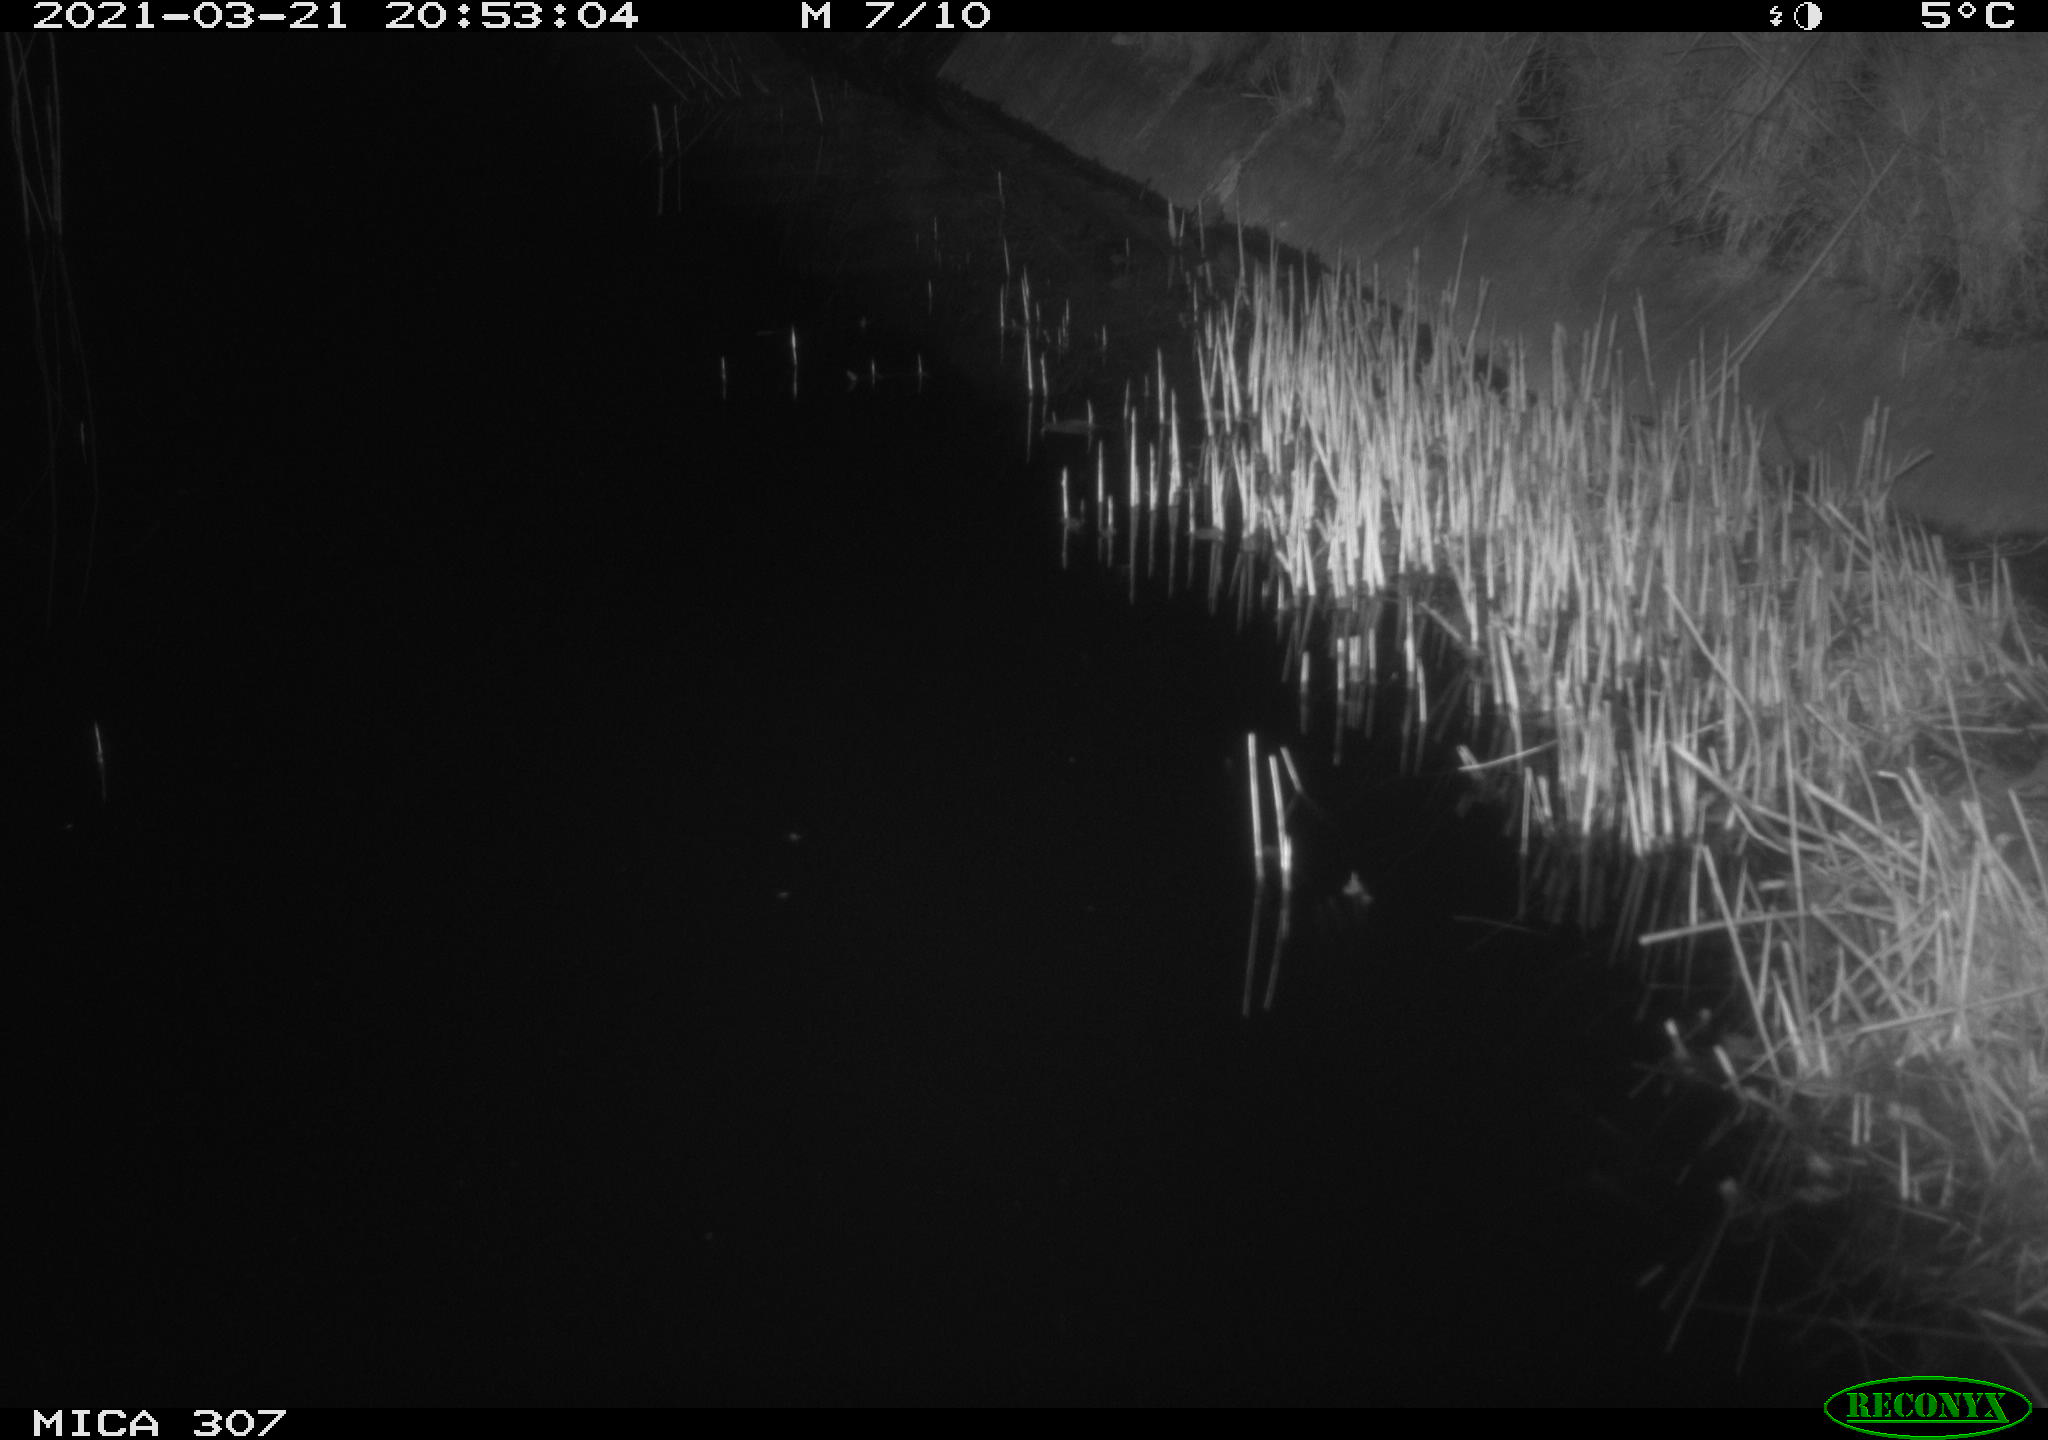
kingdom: Animalia
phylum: Chordata
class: Mammalia
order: Rodentia
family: Muridae
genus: Rattus
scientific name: Rattus norvegicus
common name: Brown rat
